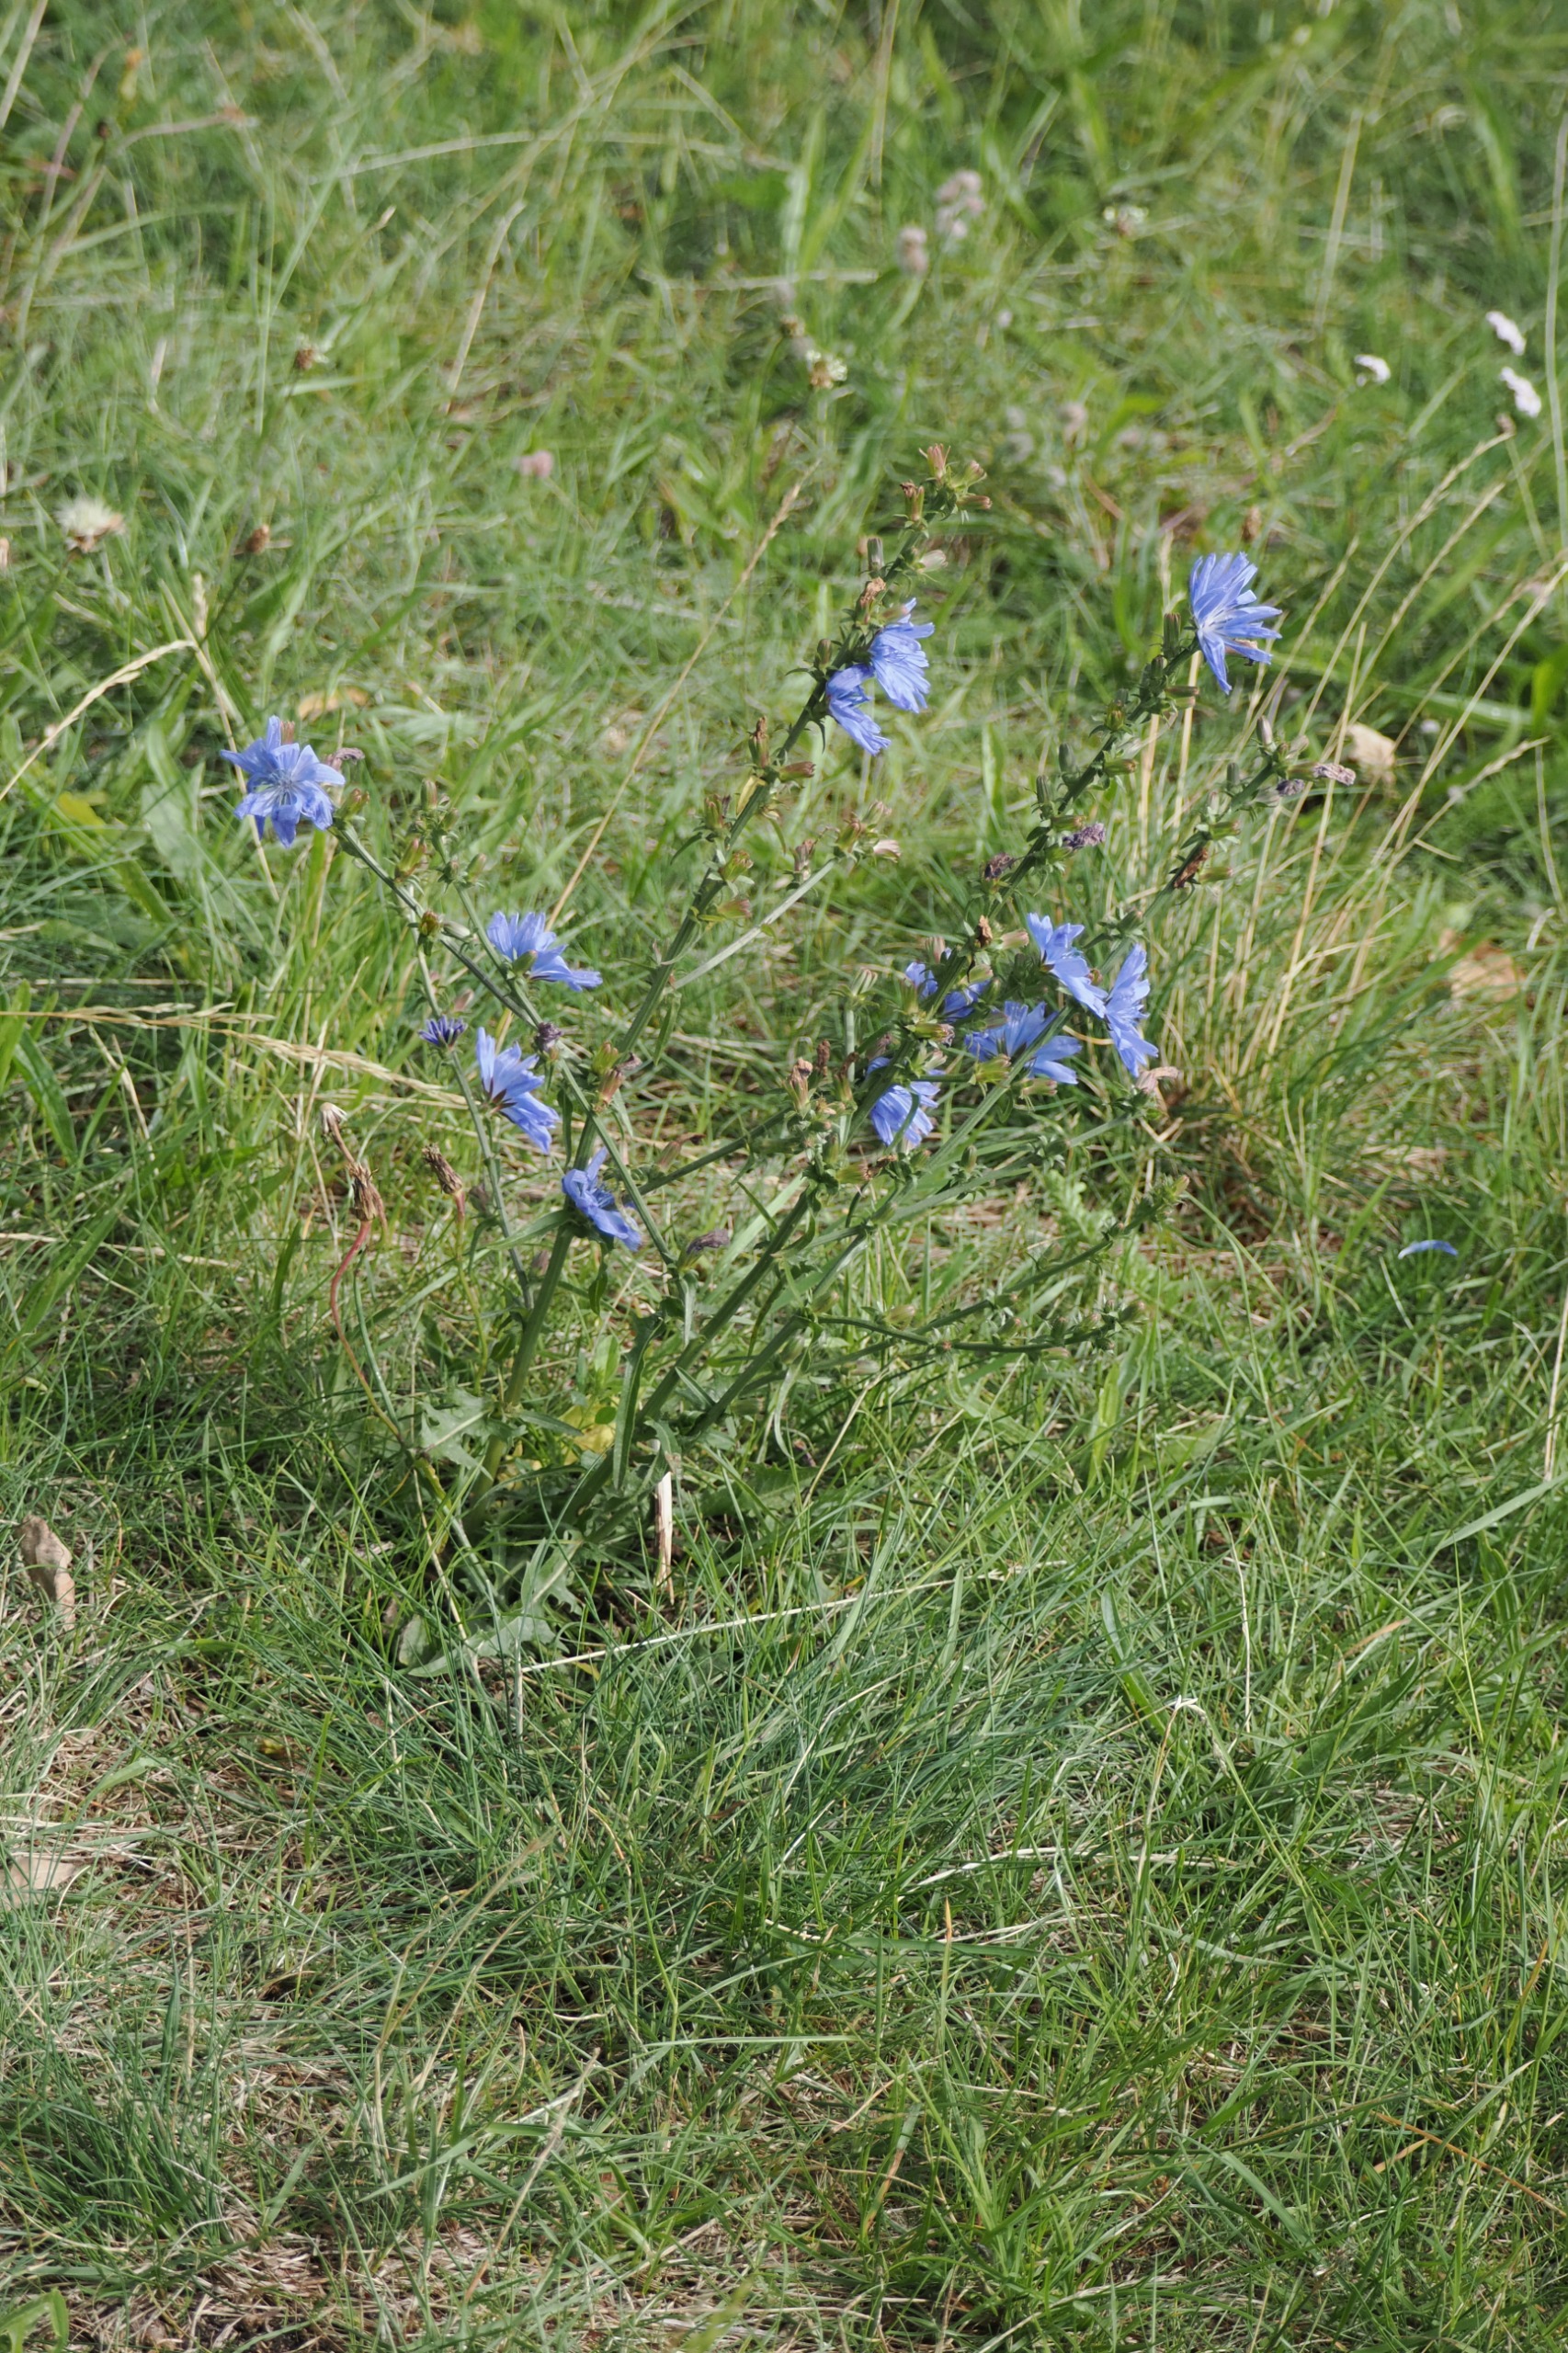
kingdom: Plantae
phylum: Tracheophyta
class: Magnoliopsida
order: Asterales
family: Asteraceae
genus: Cichorium
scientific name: Cichorium intybus
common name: Cikorie
